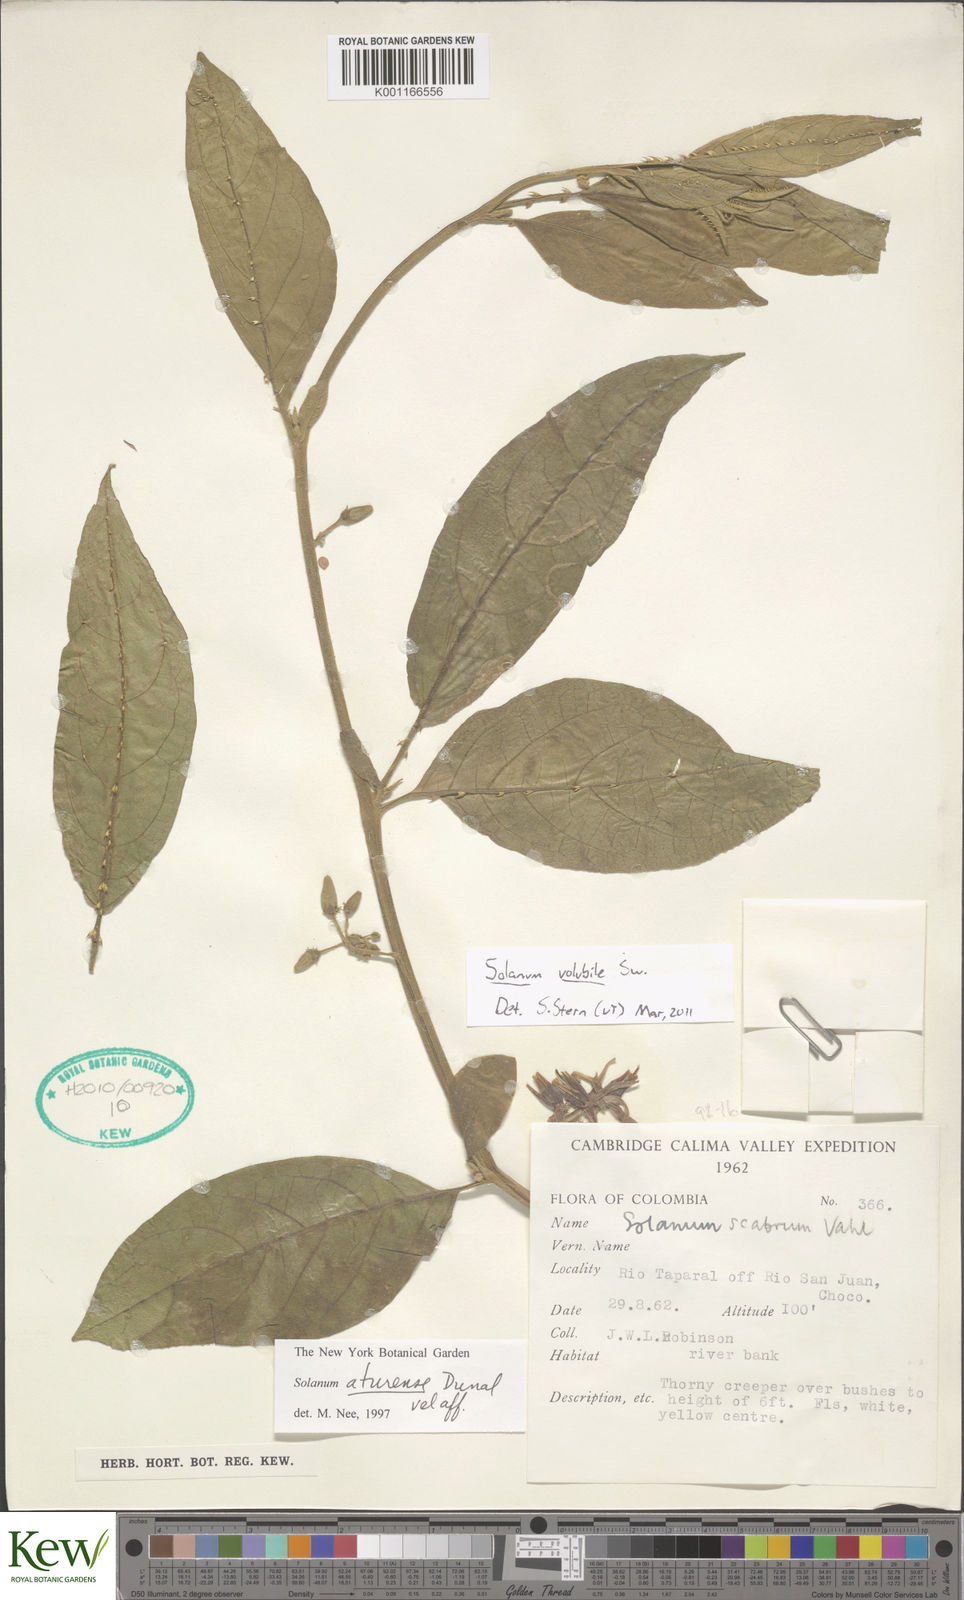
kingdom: Plantae
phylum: Tracheophyta
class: Magnoliopsida
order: Solanales
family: Solanaceae
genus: Solanum
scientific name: Solanum volubile
